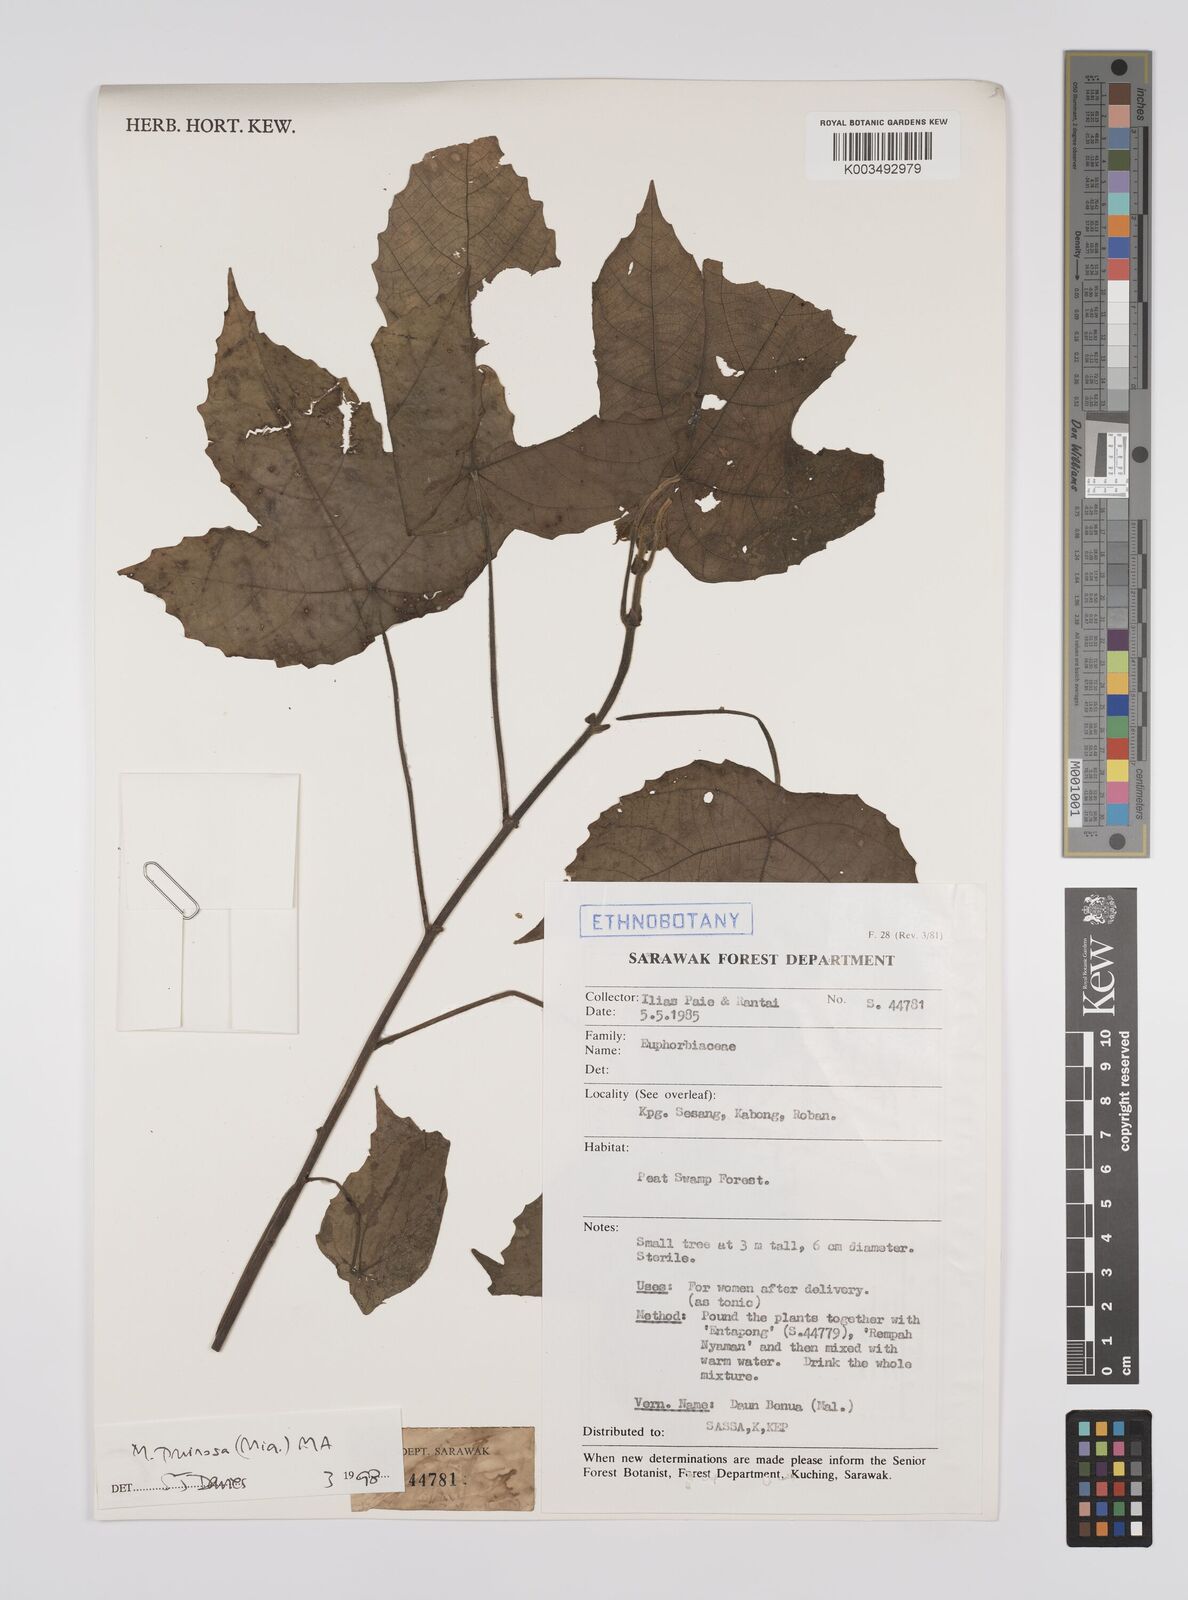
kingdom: Plantae
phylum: Tracheophyta
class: Magnoliopsida
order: Malpighiales
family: Euphorbiaceae
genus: Macaranga
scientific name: Macaranga pruinosa
